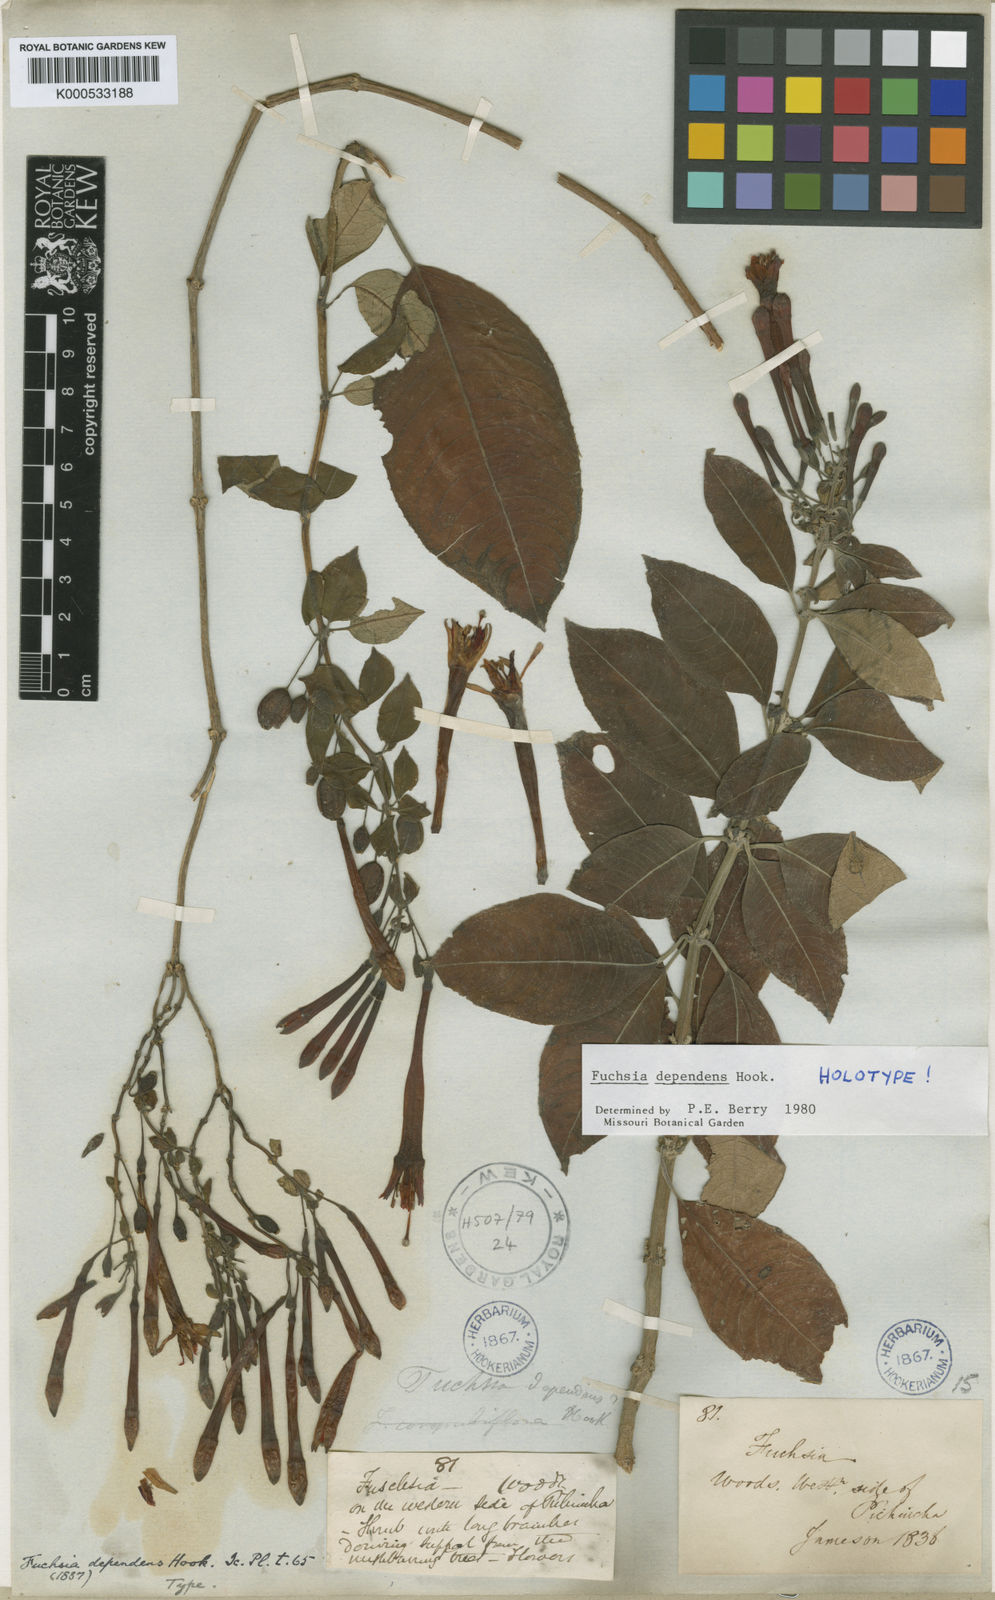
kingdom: Plantae
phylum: Tracheophyta
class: Magnoliopsida
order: Myrtales
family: Onagraceae
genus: Fuchsia
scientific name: Fuchsia dependens
